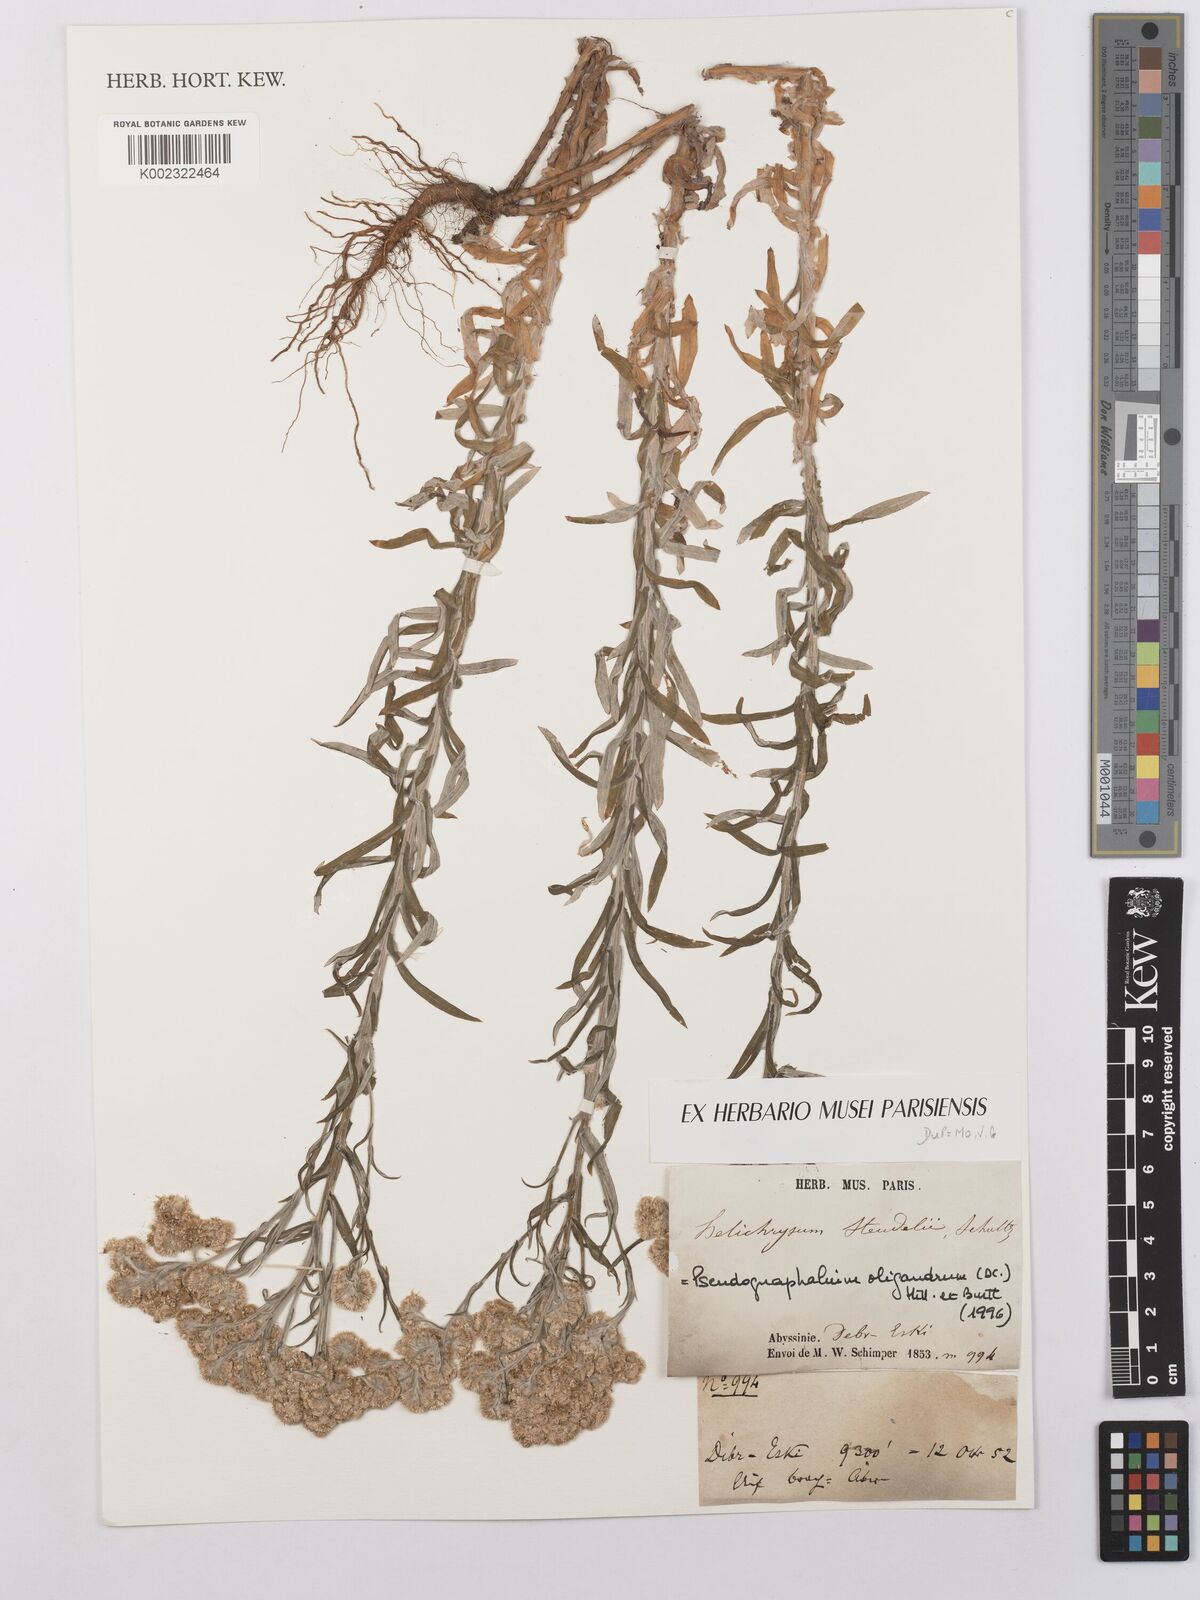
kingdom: Plantae
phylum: Tracheophyta
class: Magnoliopsida
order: Asterales
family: Asteraceae
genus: Helichrysum
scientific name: Helichrysum
